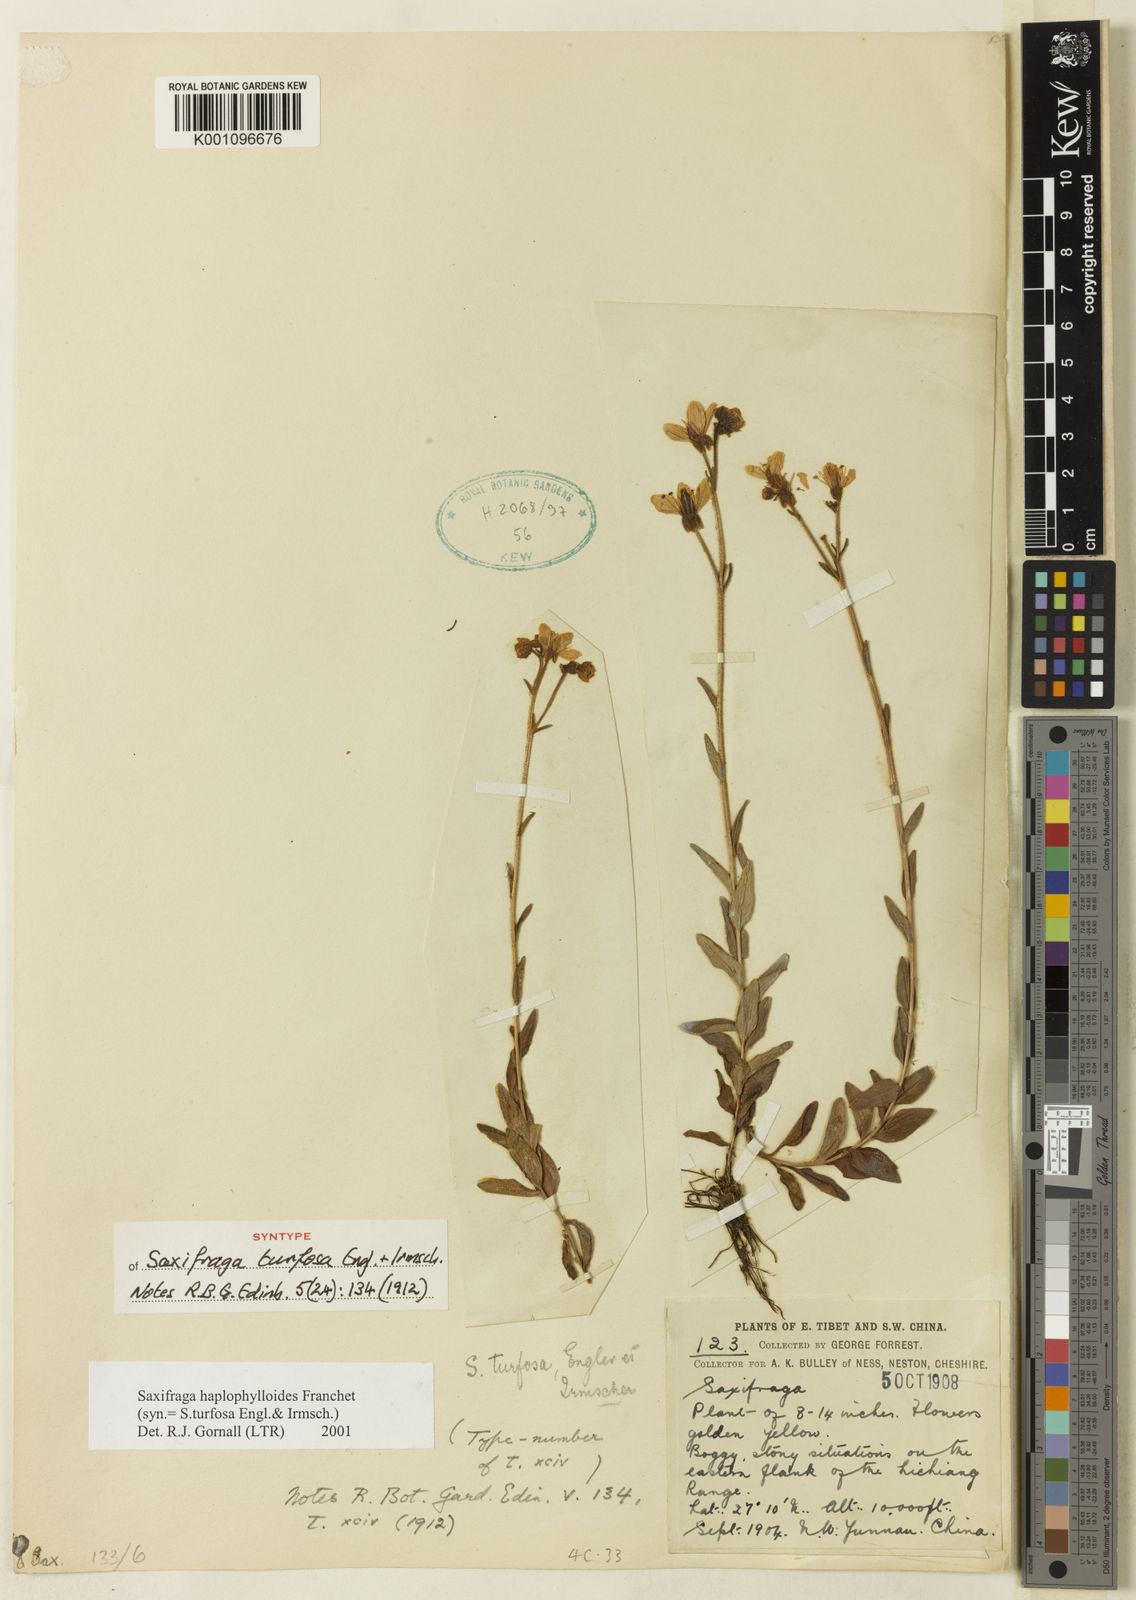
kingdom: Plantae
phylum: Tracheophyta
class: Magnoliopsida
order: Saxifragales
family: Saxifragaceae
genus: Saxifraga
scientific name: Saxifraga
